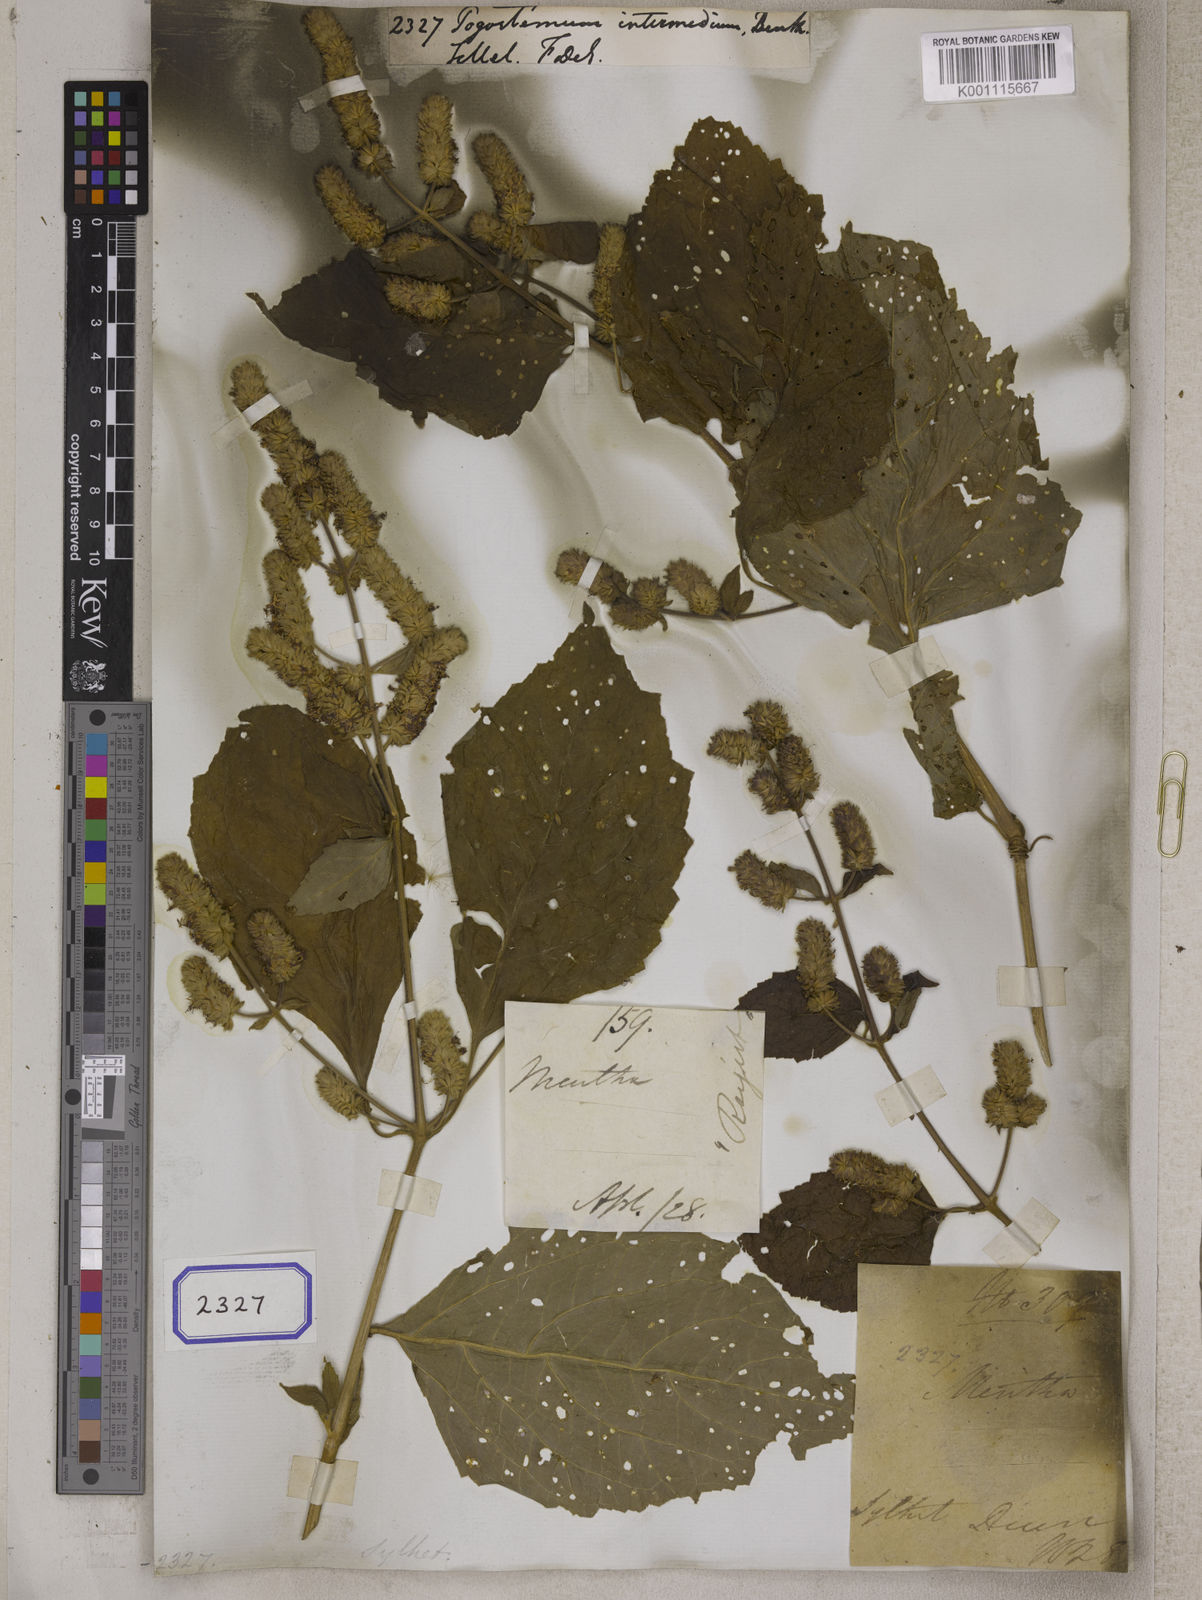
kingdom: Plantae
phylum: Tracheophyta
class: Magnoliopsida
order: Lamiales
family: Lamiaceae
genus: Pogostemon
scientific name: Pogostemon
